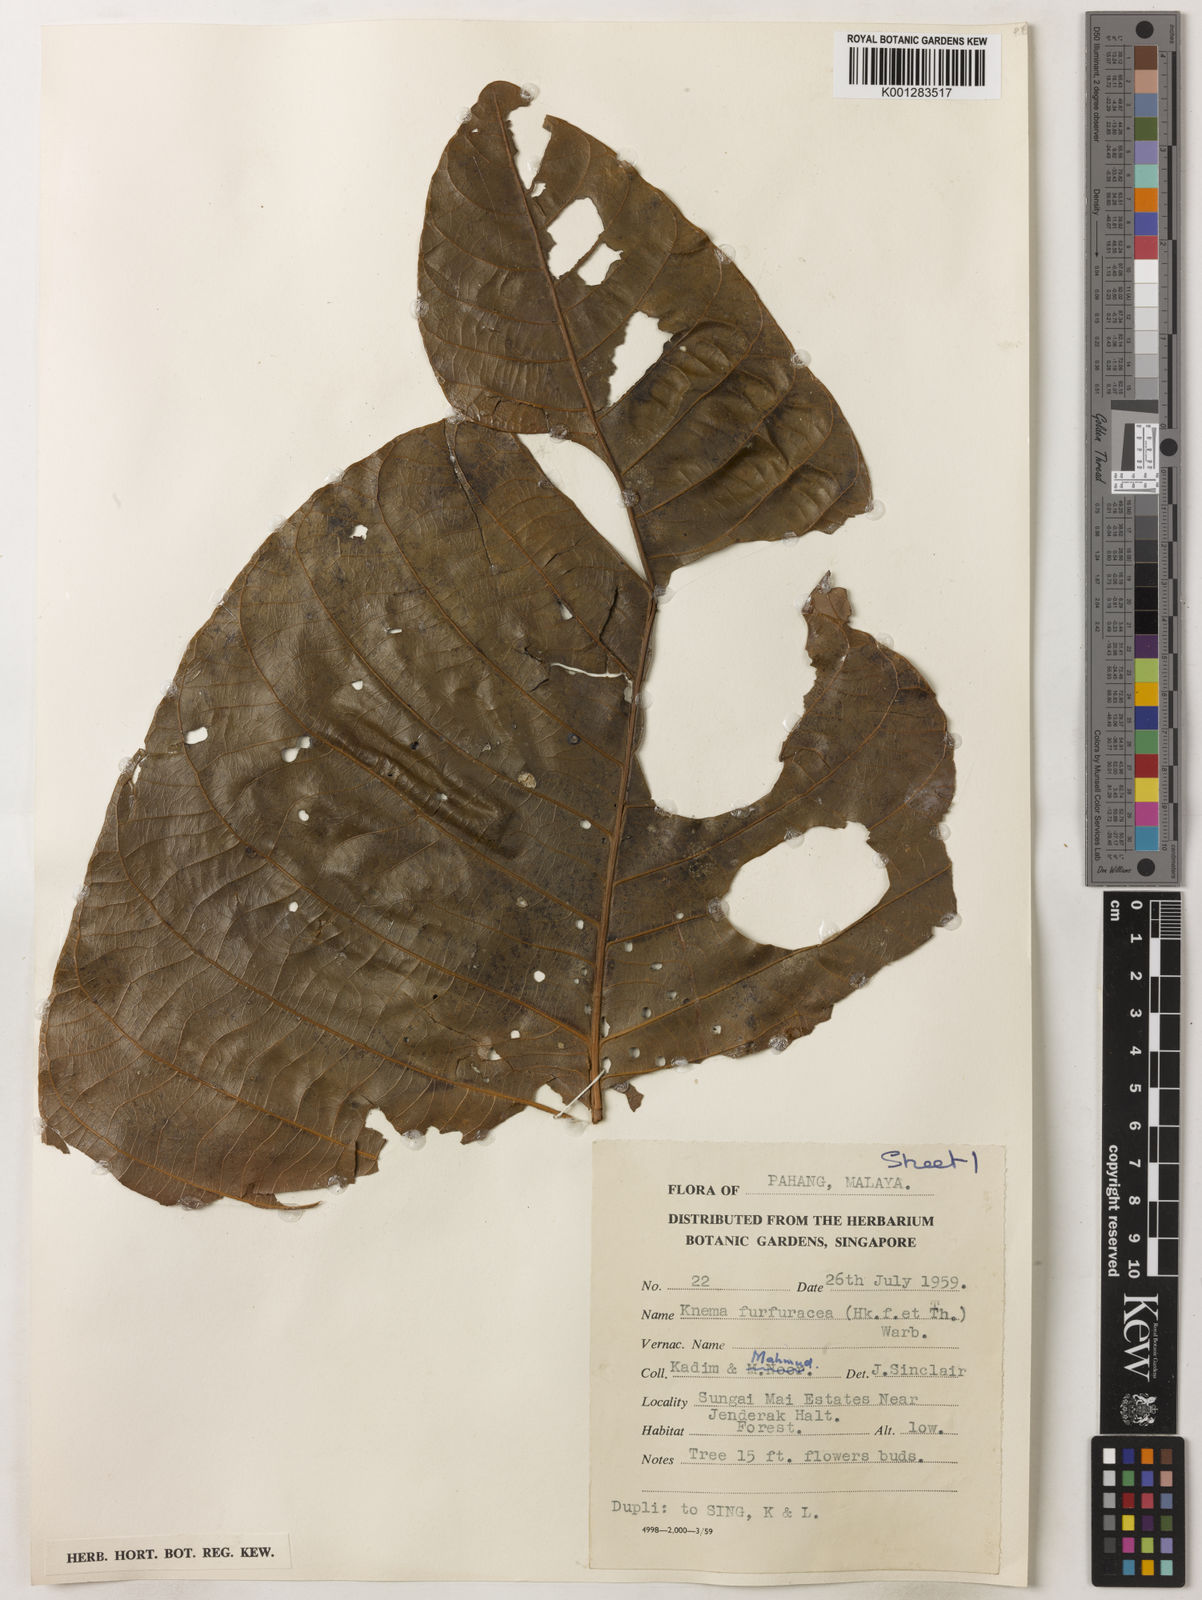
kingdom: Plantae
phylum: Tracheophyta
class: Magnoliopsida
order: Magnoliales
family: Myristicaceae
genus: Knema
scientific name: Knema furfuracea
